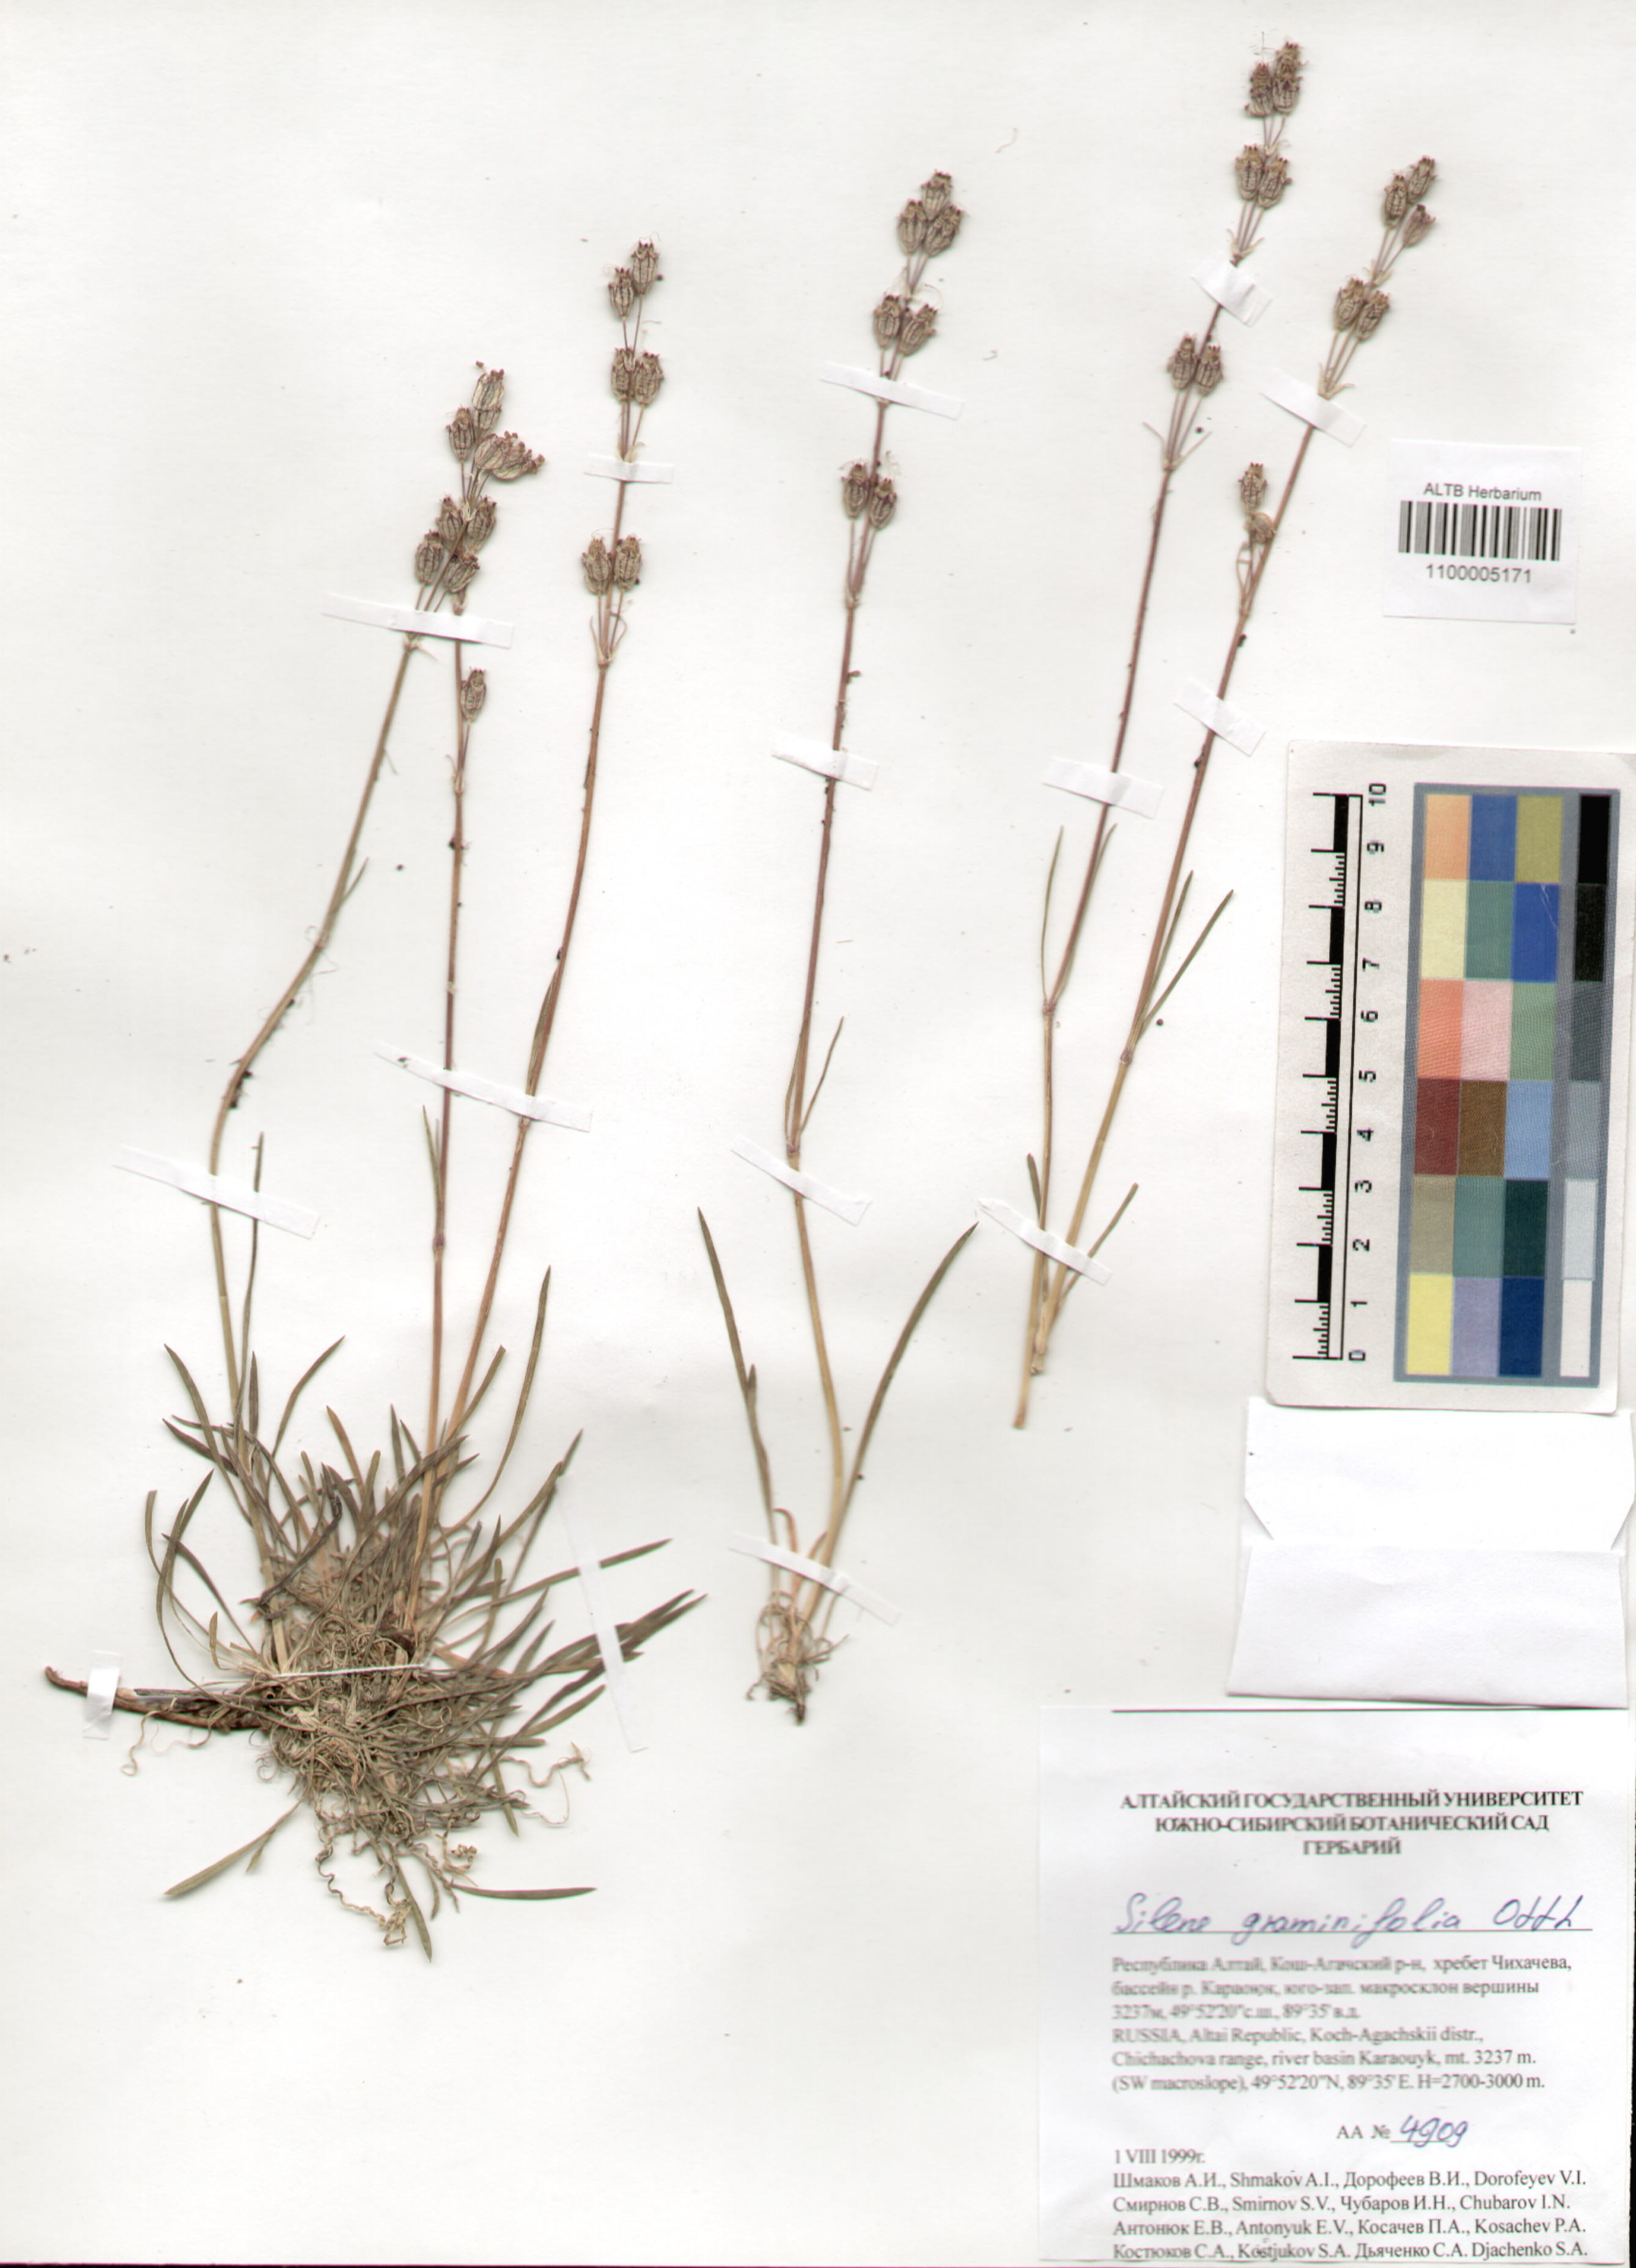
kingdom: Plantae
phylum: Tracheophyta
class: Magnoliopsida
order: Caryophyllales
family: Caryophyllaceae
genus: Silene
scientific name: Silene graminifolia
